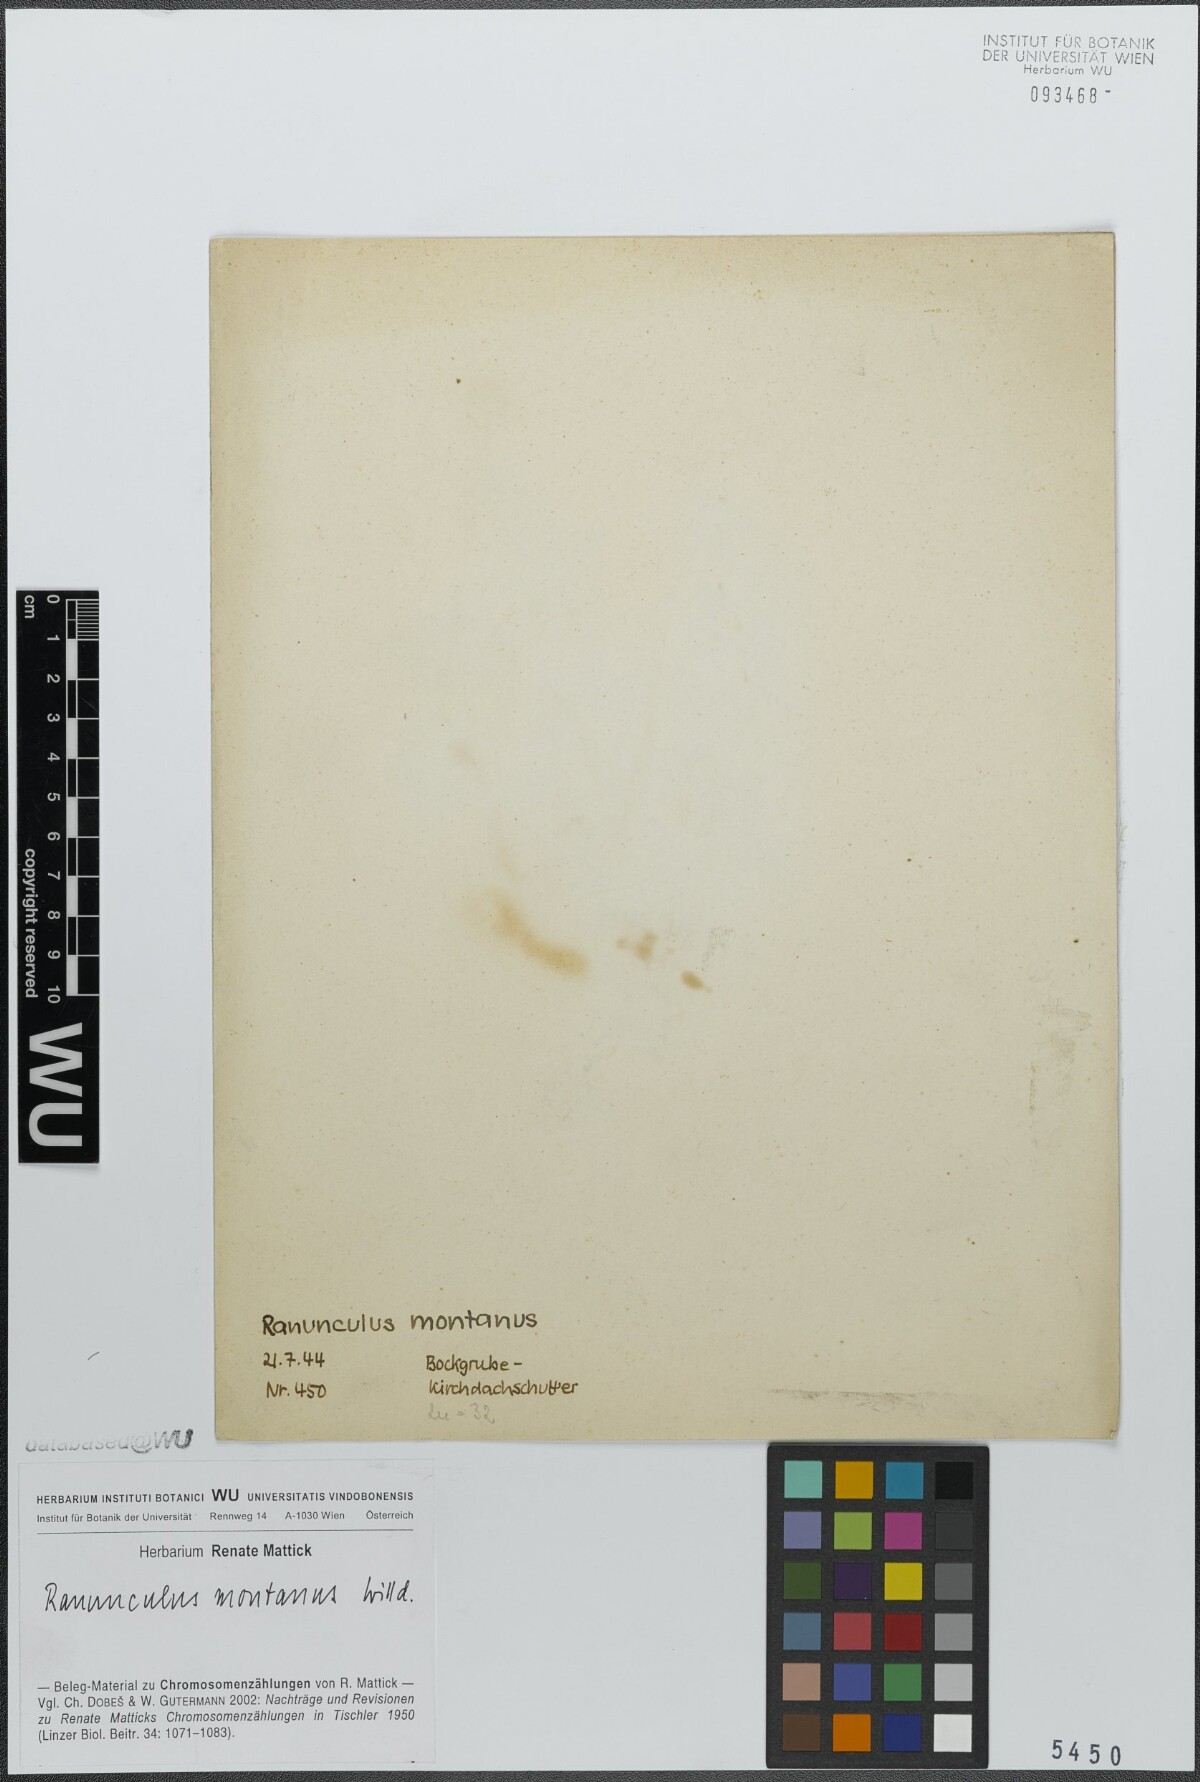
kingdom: Plantae
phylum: Tracheophyta
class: Magnoliopsida
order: Ranunculales
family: Ranunculaceae
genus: Ranunculus
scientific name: Ranunculus montanus
